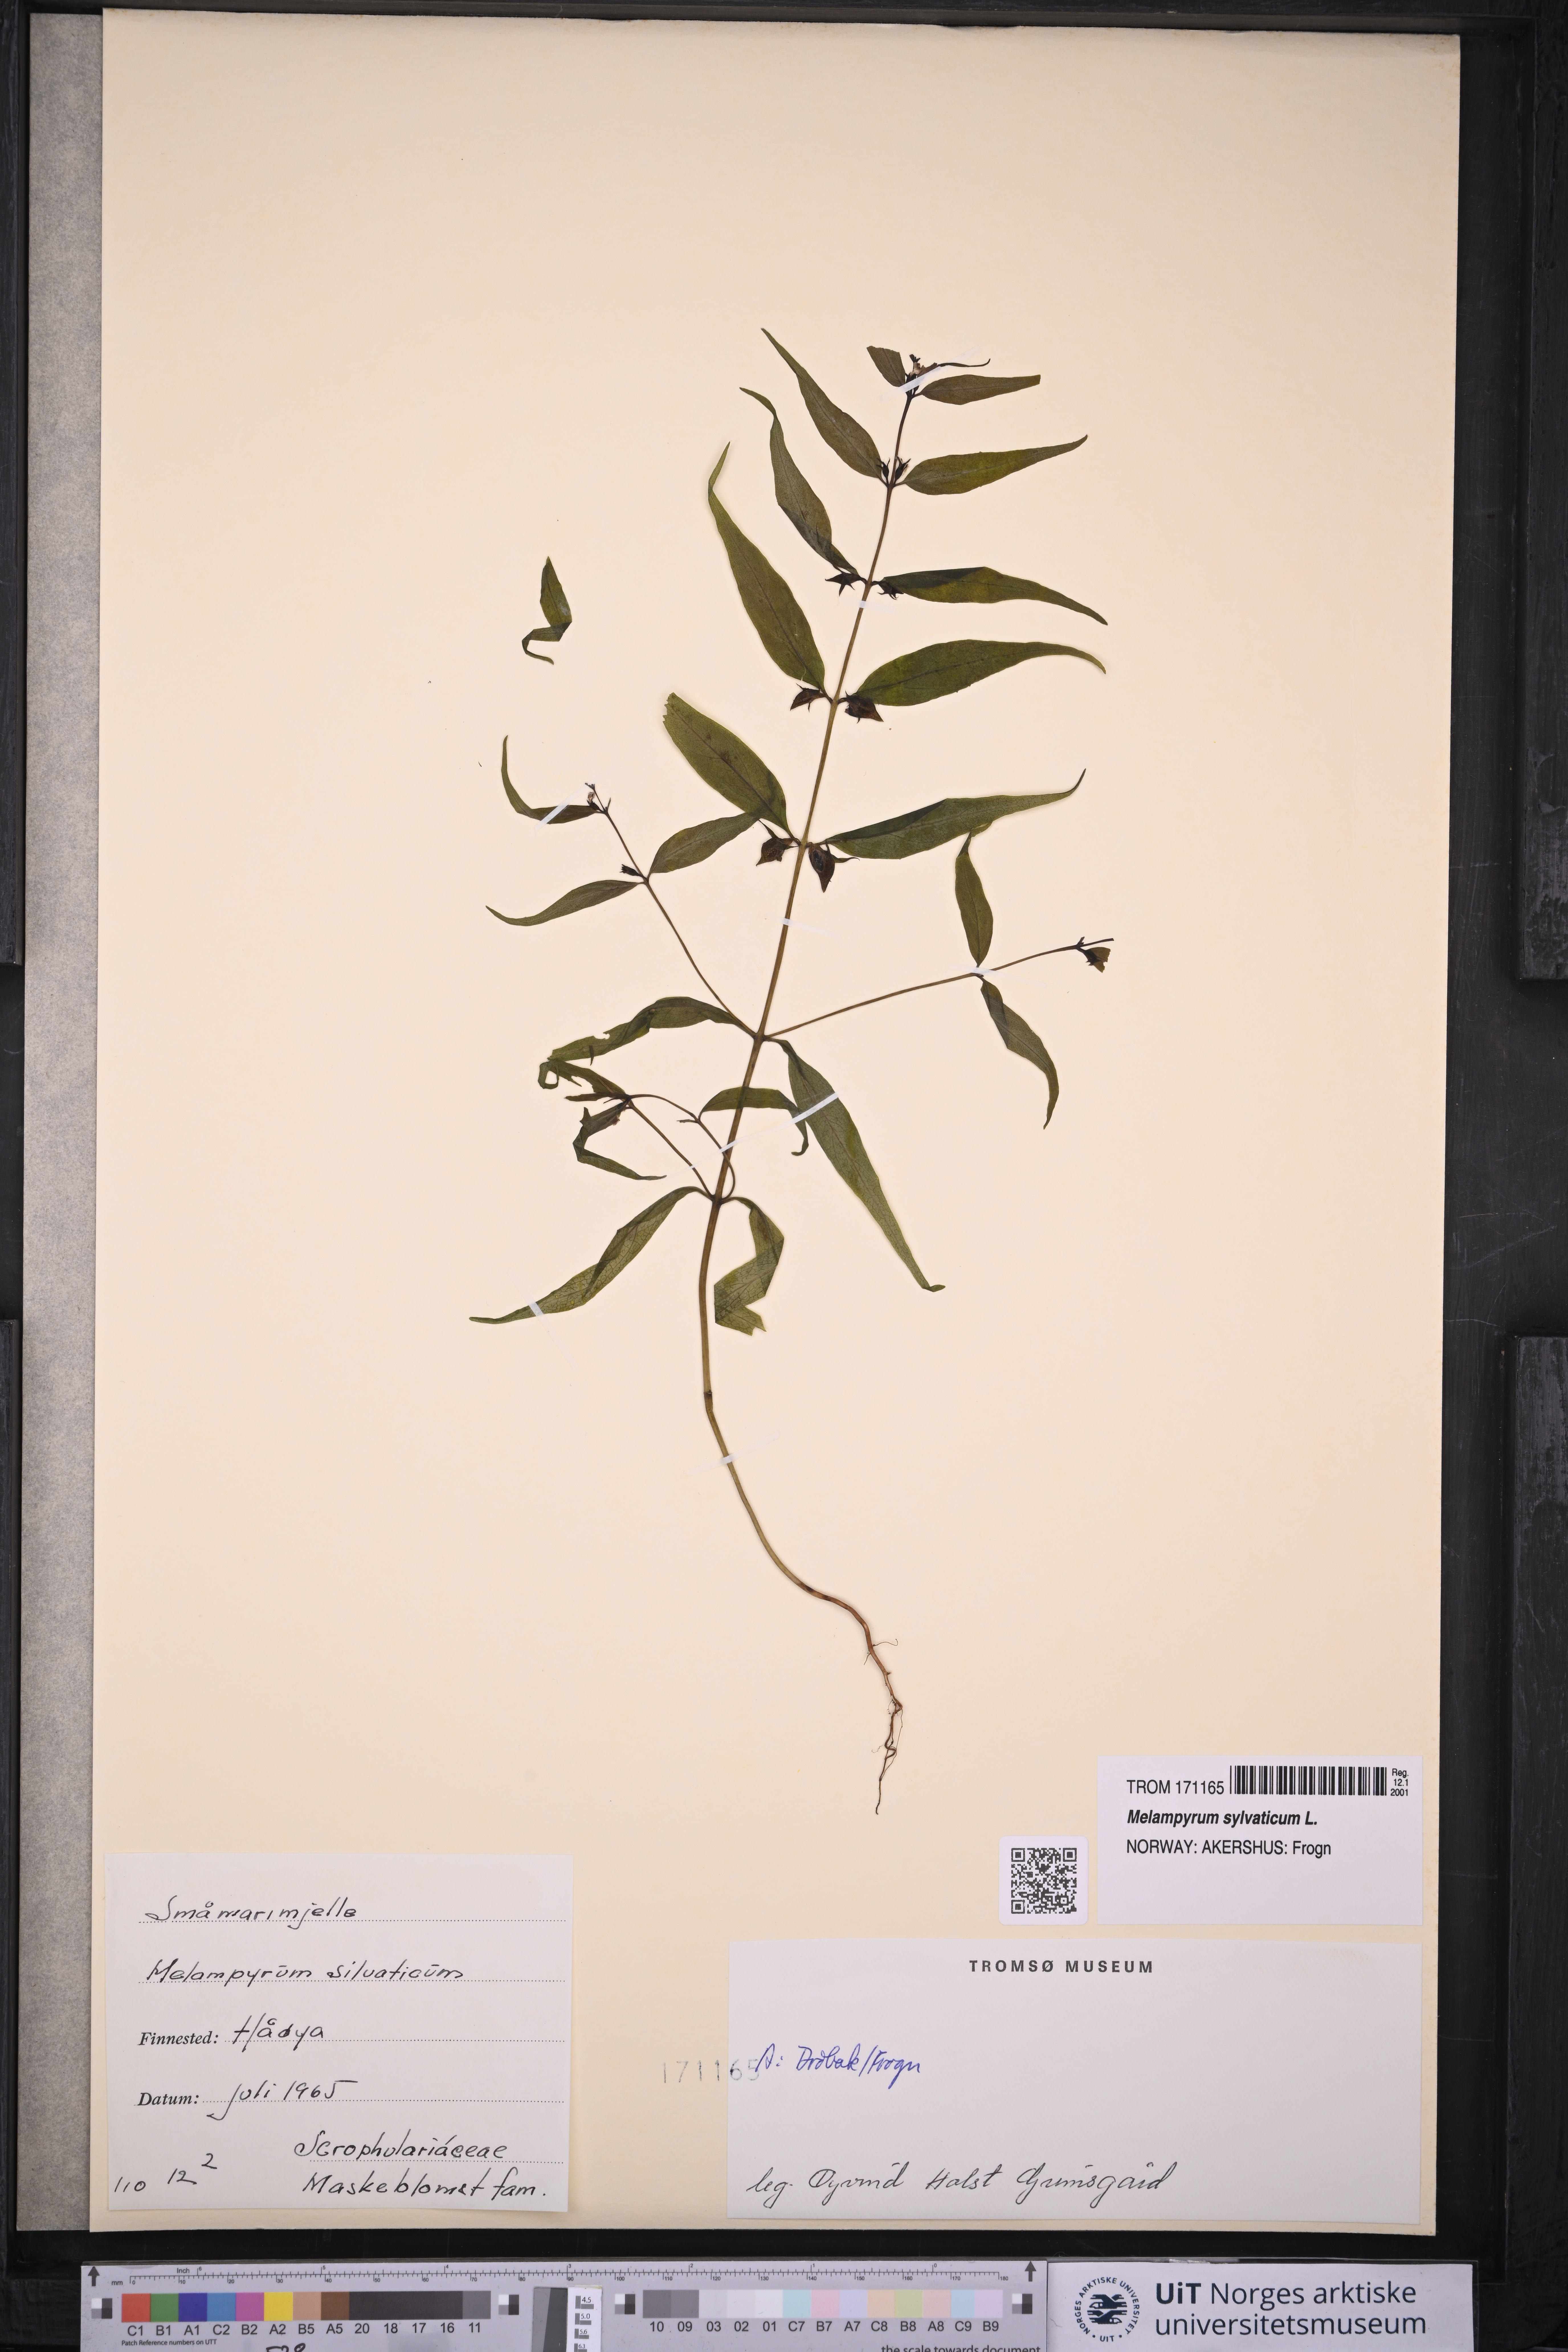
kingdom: Plantae
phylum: Tracheophyta
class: Magnoliopsida
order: Lamiales
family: Orobanchaceae
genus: Melampyrum
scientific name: Melampyrum sylvaticum
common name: Small cow-wheat
